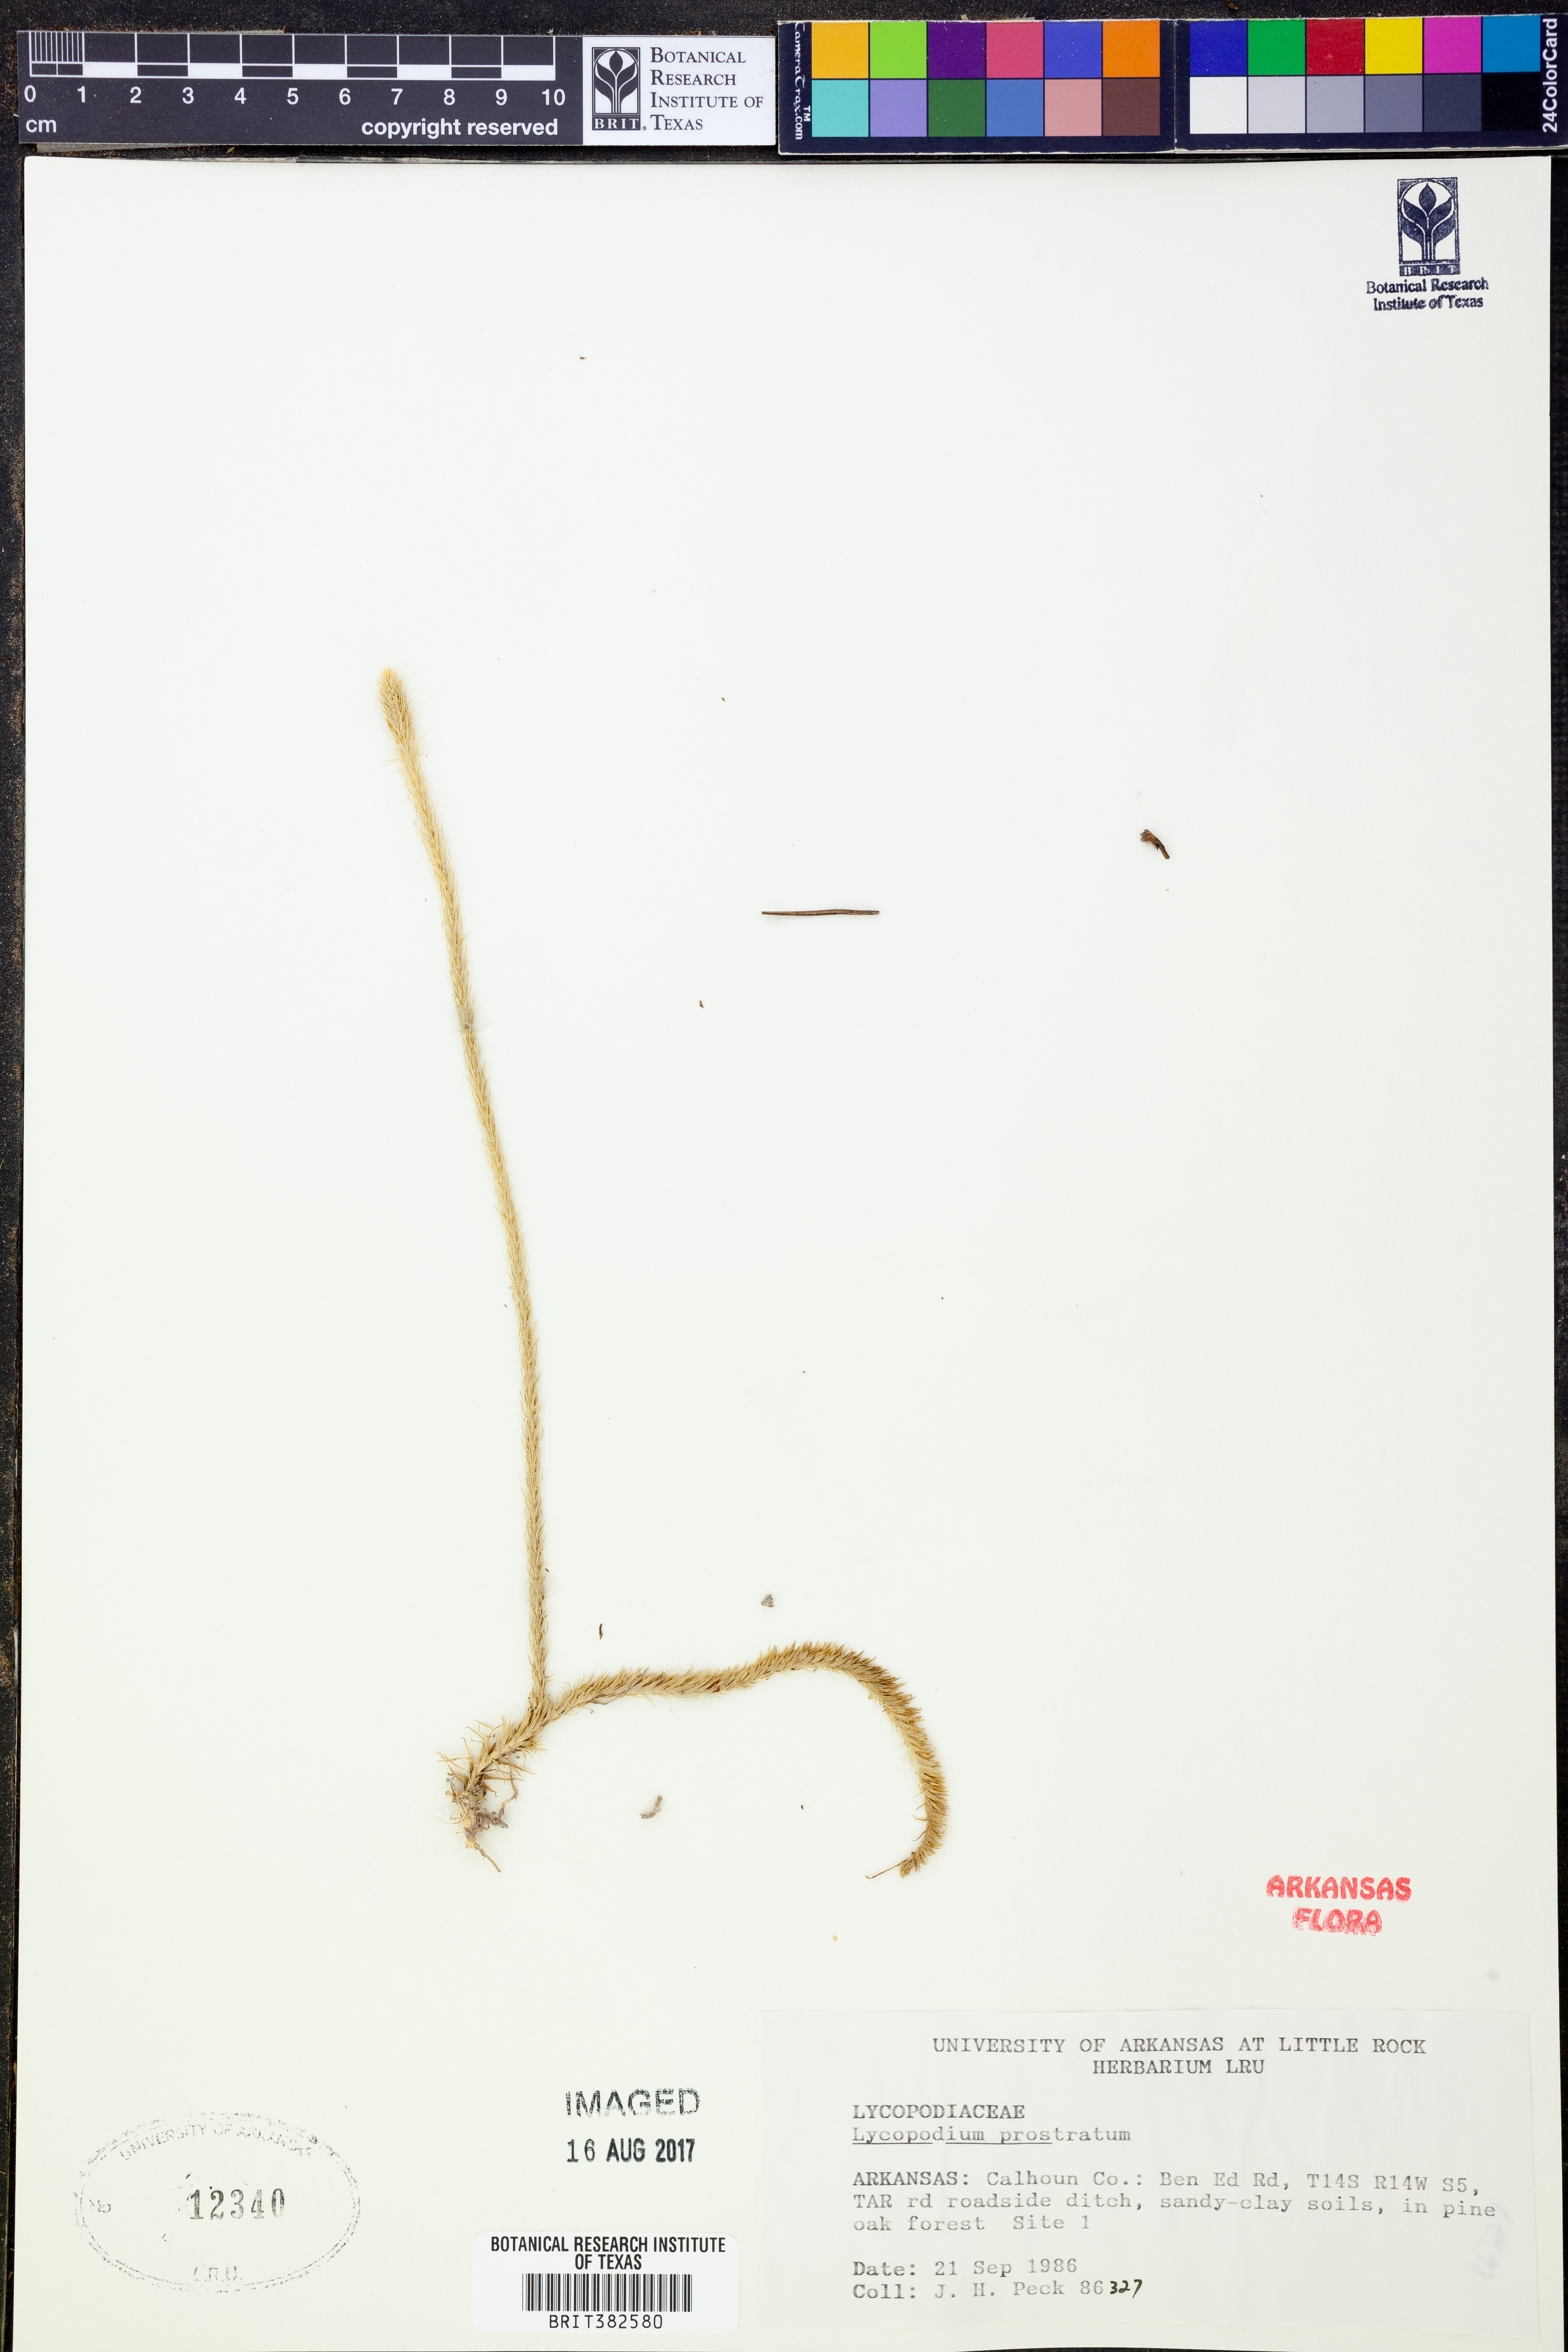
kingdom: Plantae
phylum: Tracheophyta
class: Lycopodiopsida
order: Lycopodiales
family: Lycopodiaceae
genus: Lycopodiella
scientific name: Lycopodiella prostrata
